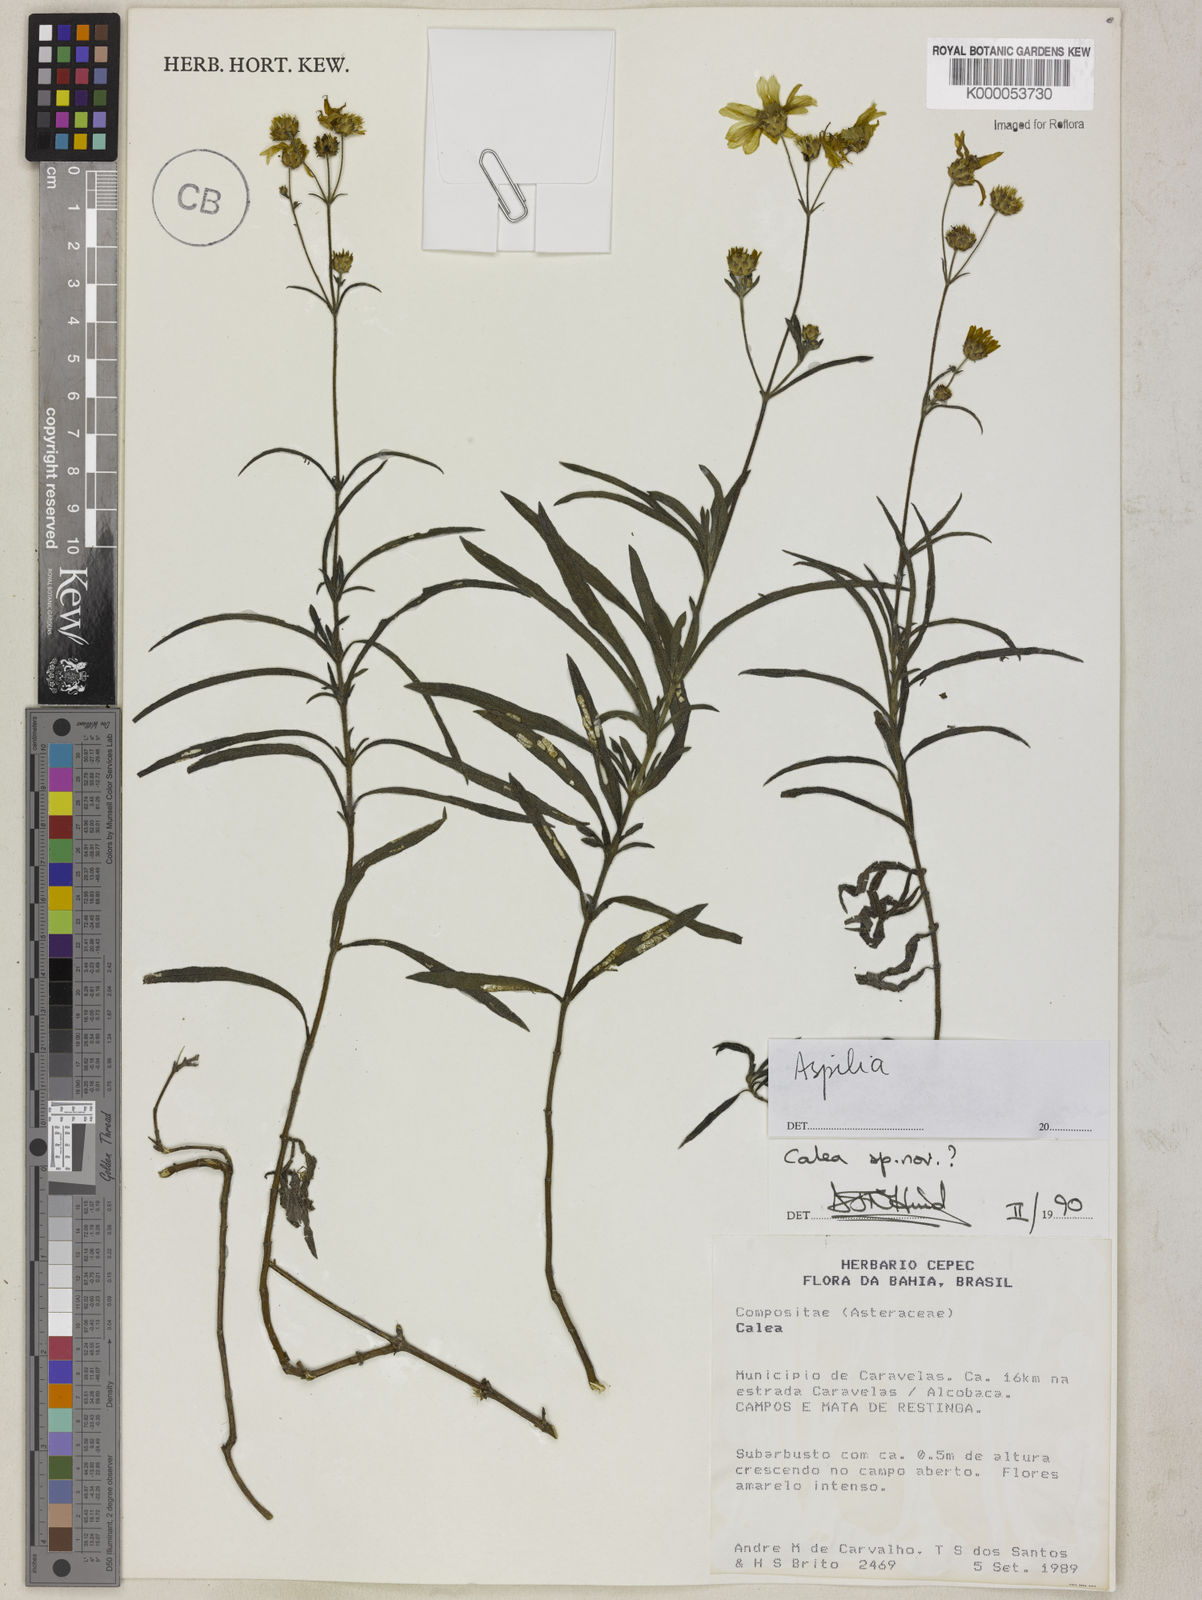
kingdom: Plantae
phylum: Tracheophyta
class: Magnoliopsida
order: Asterales
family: Asteraceae
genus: Calea
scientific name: Calea
